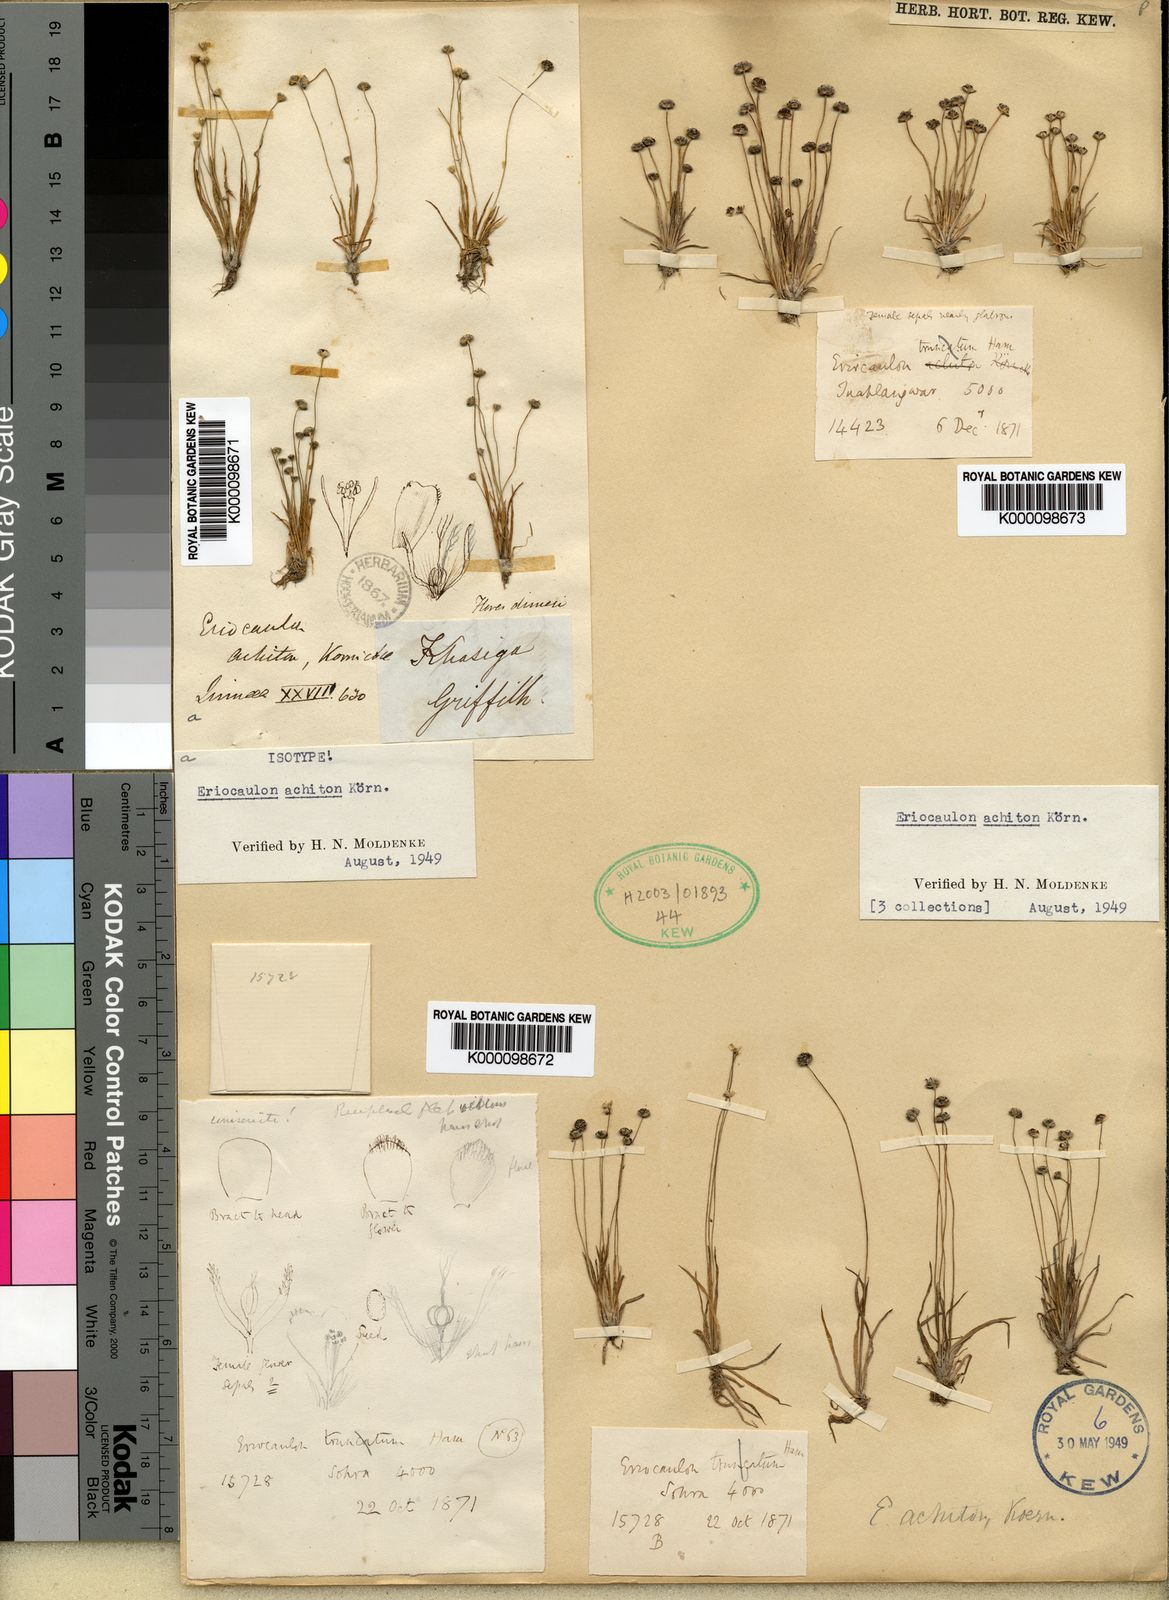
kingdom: Plantae
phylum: Tracheophyta
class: Liliopsida
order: Poales
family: Eriocaulaceae
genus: Eriocaulon
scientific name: Eriocaulon
